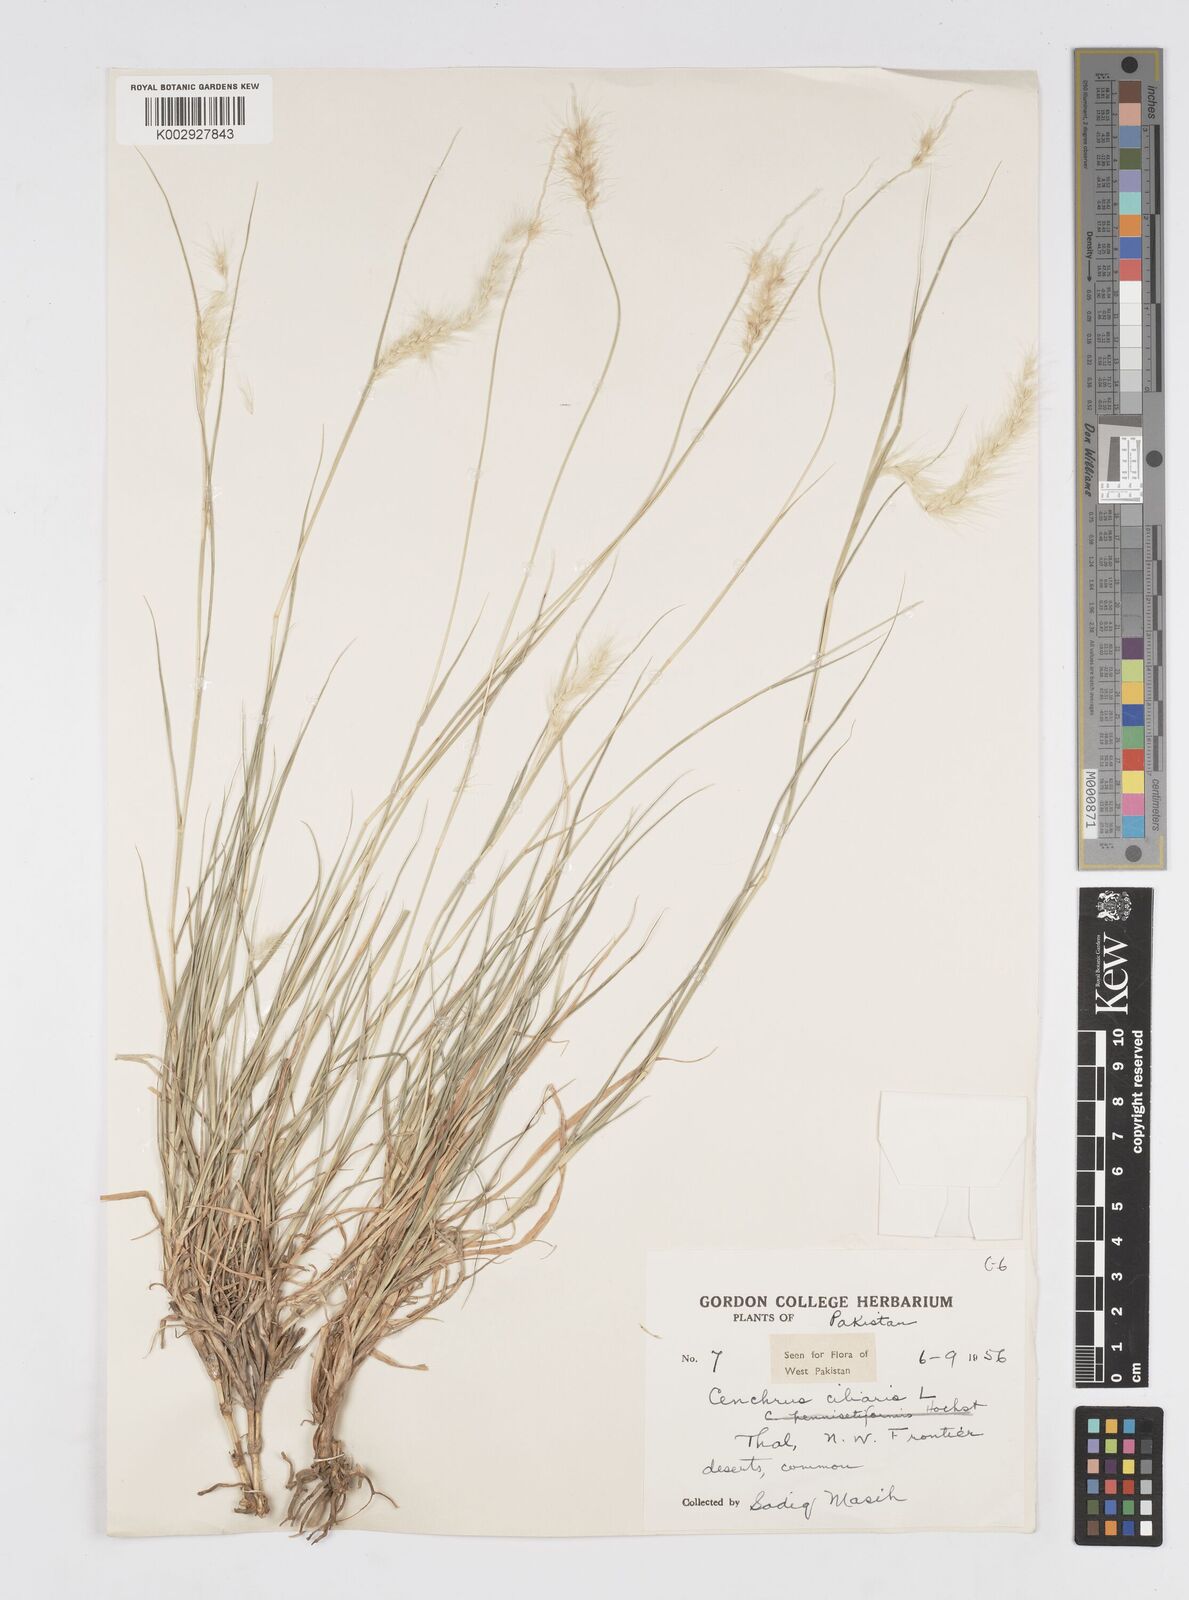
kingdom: Plantae
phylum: Tracheophyta
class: Liliopsida
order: Poales
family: Poaceae
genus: Cenchrus
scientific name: Cenchrus ciliaris
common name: Buffelgrass
